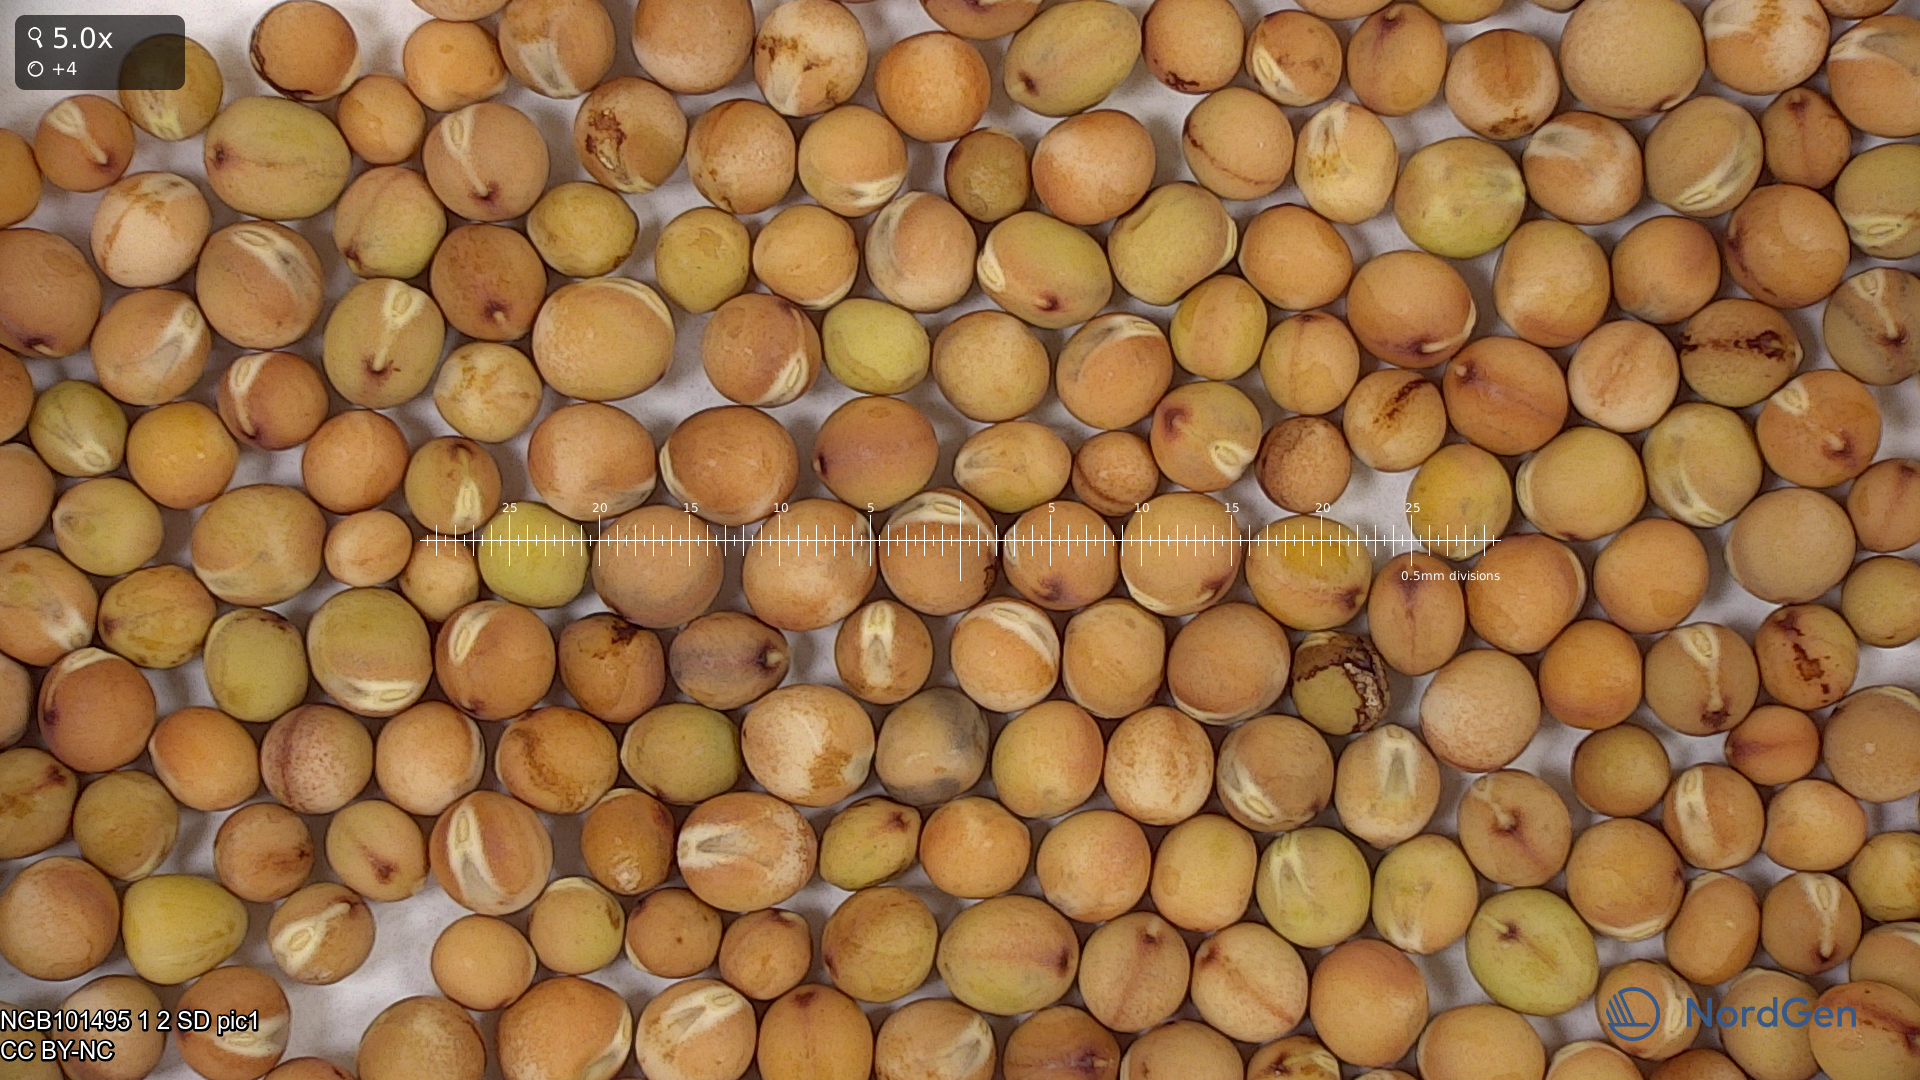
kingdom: Plantae
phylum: Tracheophyta
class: Magnoliopsida
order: Fabales
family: Fabaceae
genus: Lathyrus
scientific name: Lathyrus oleraceus
